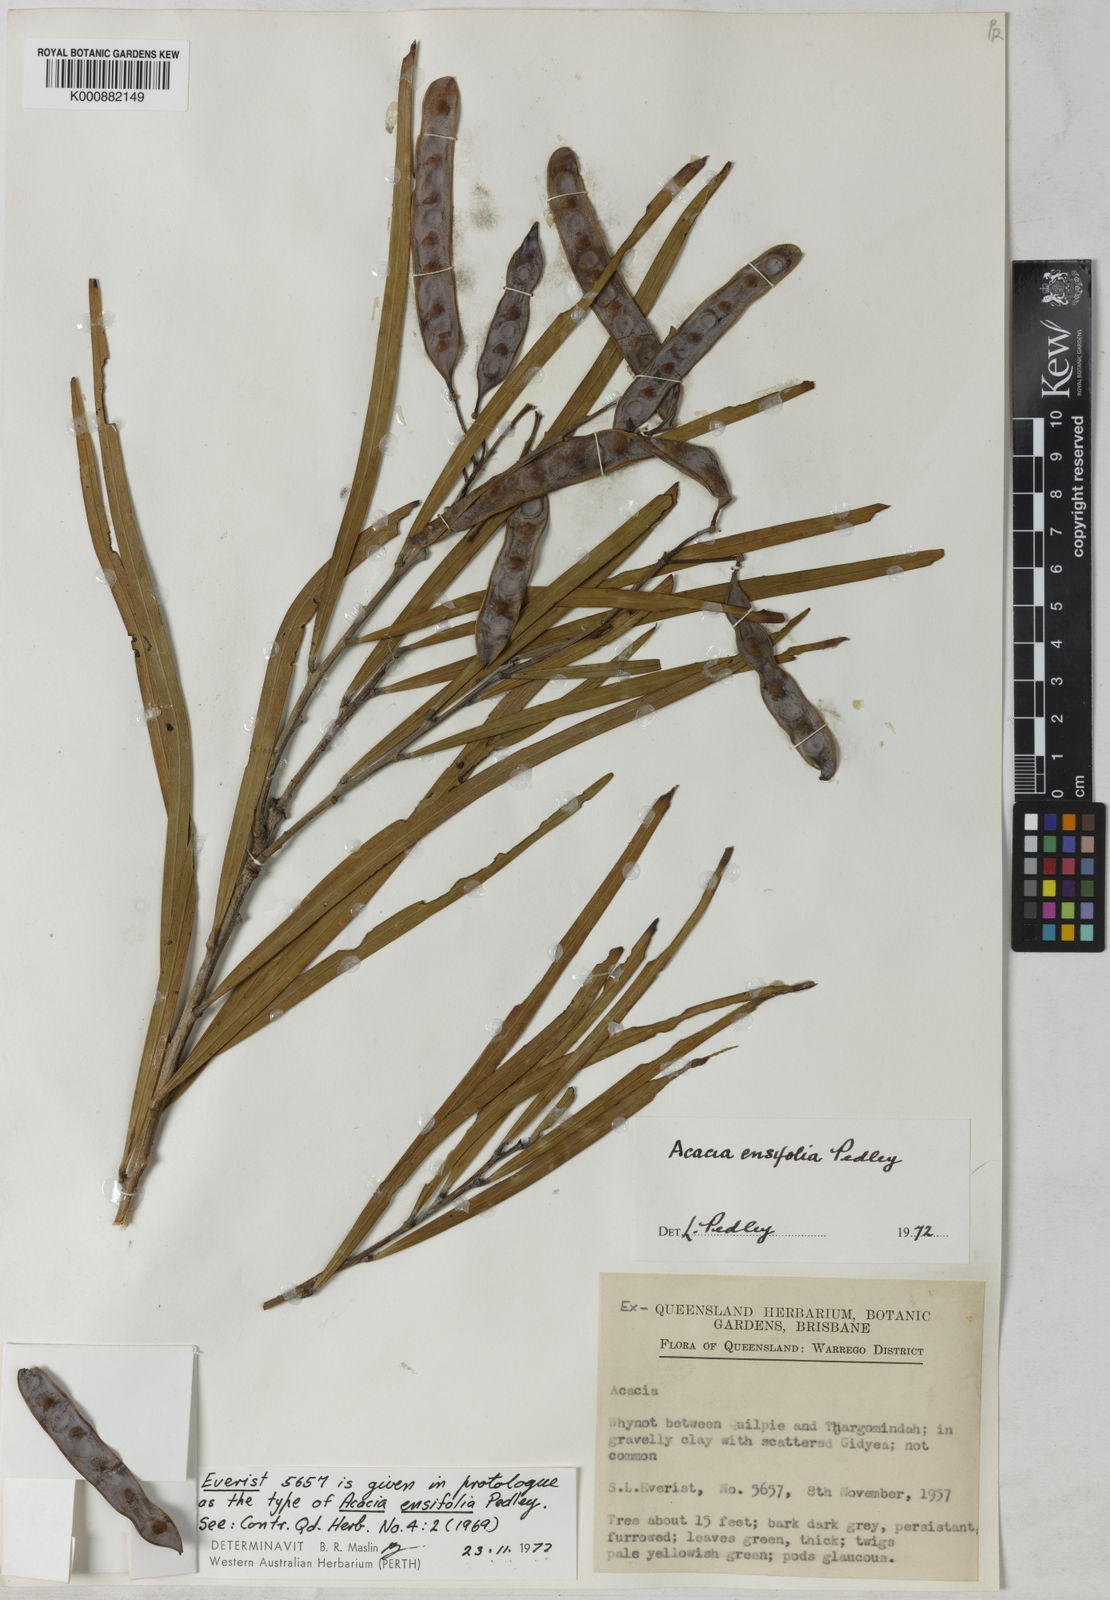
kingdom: Plantae
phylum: Tracheophyta
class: Magnoliopsida
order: Fabales
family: Fabaceae
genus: Acacia
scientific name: Acacia ensifolia
